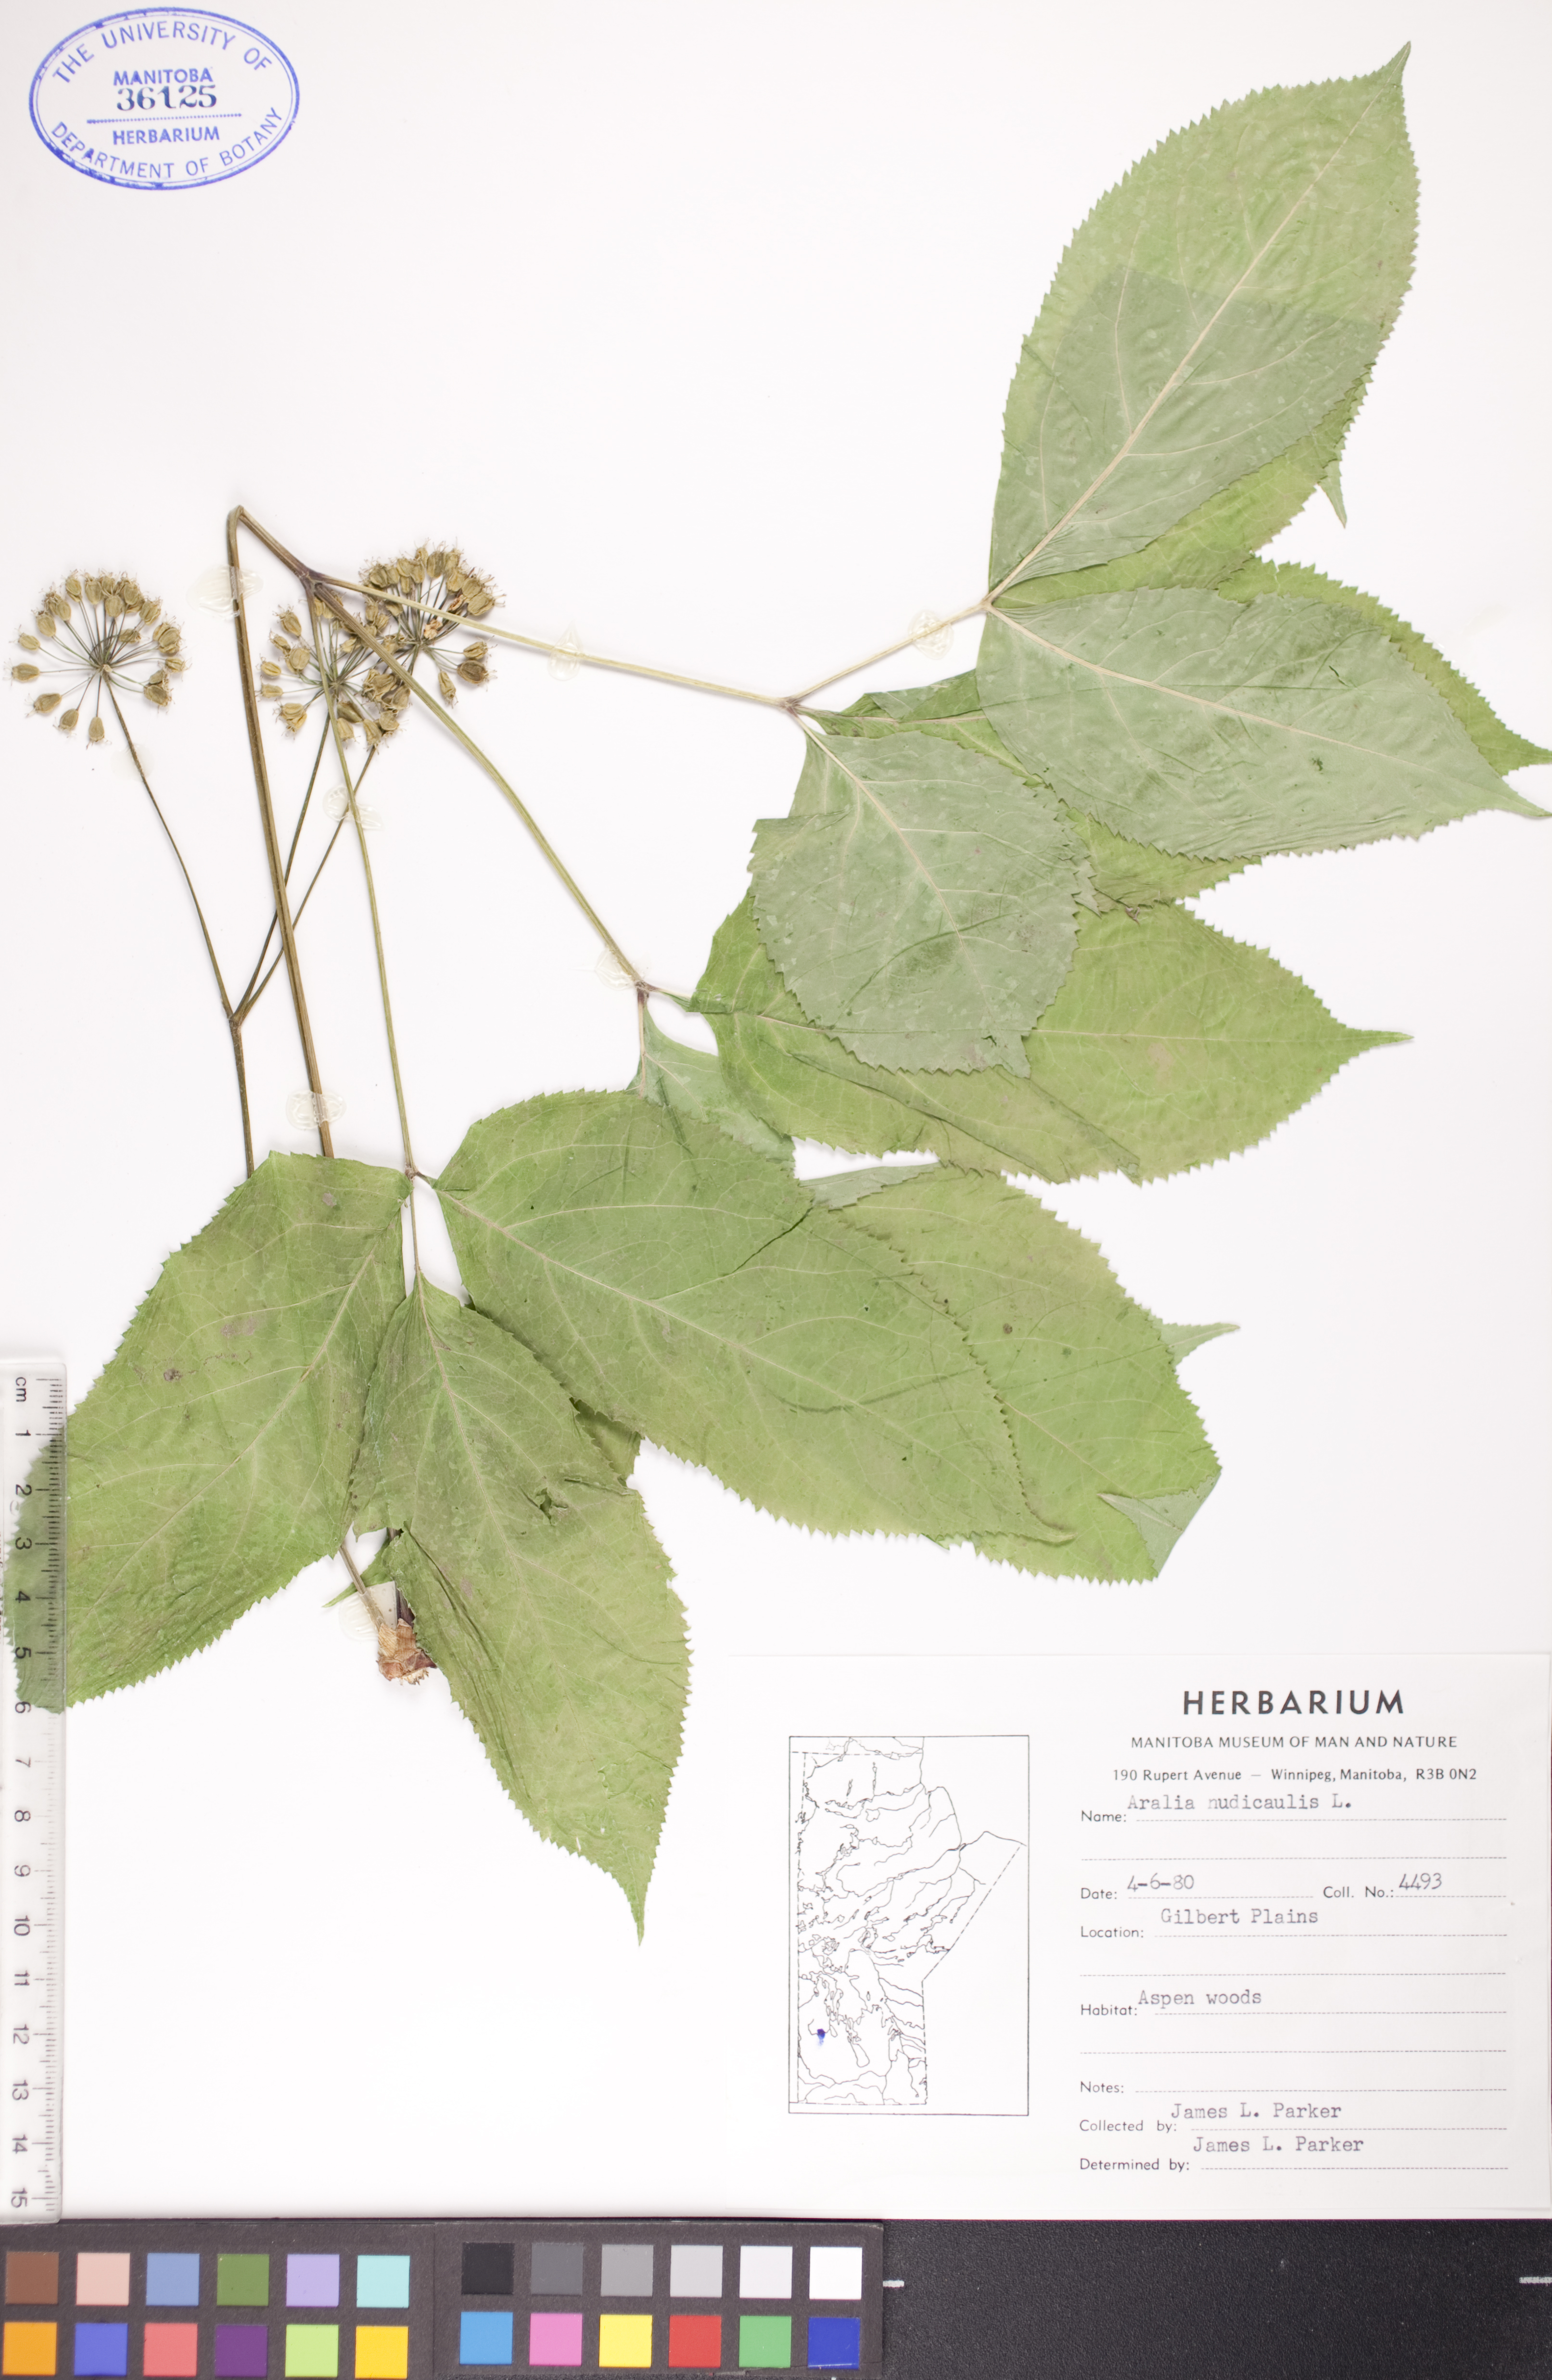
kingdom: Plantae
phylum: Tracheophyta
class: Magnoliopsida
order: Apiales
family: Araliaceae
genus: Aralia
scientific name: Aralia nudicaulis
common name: Wild sarsaparilla
